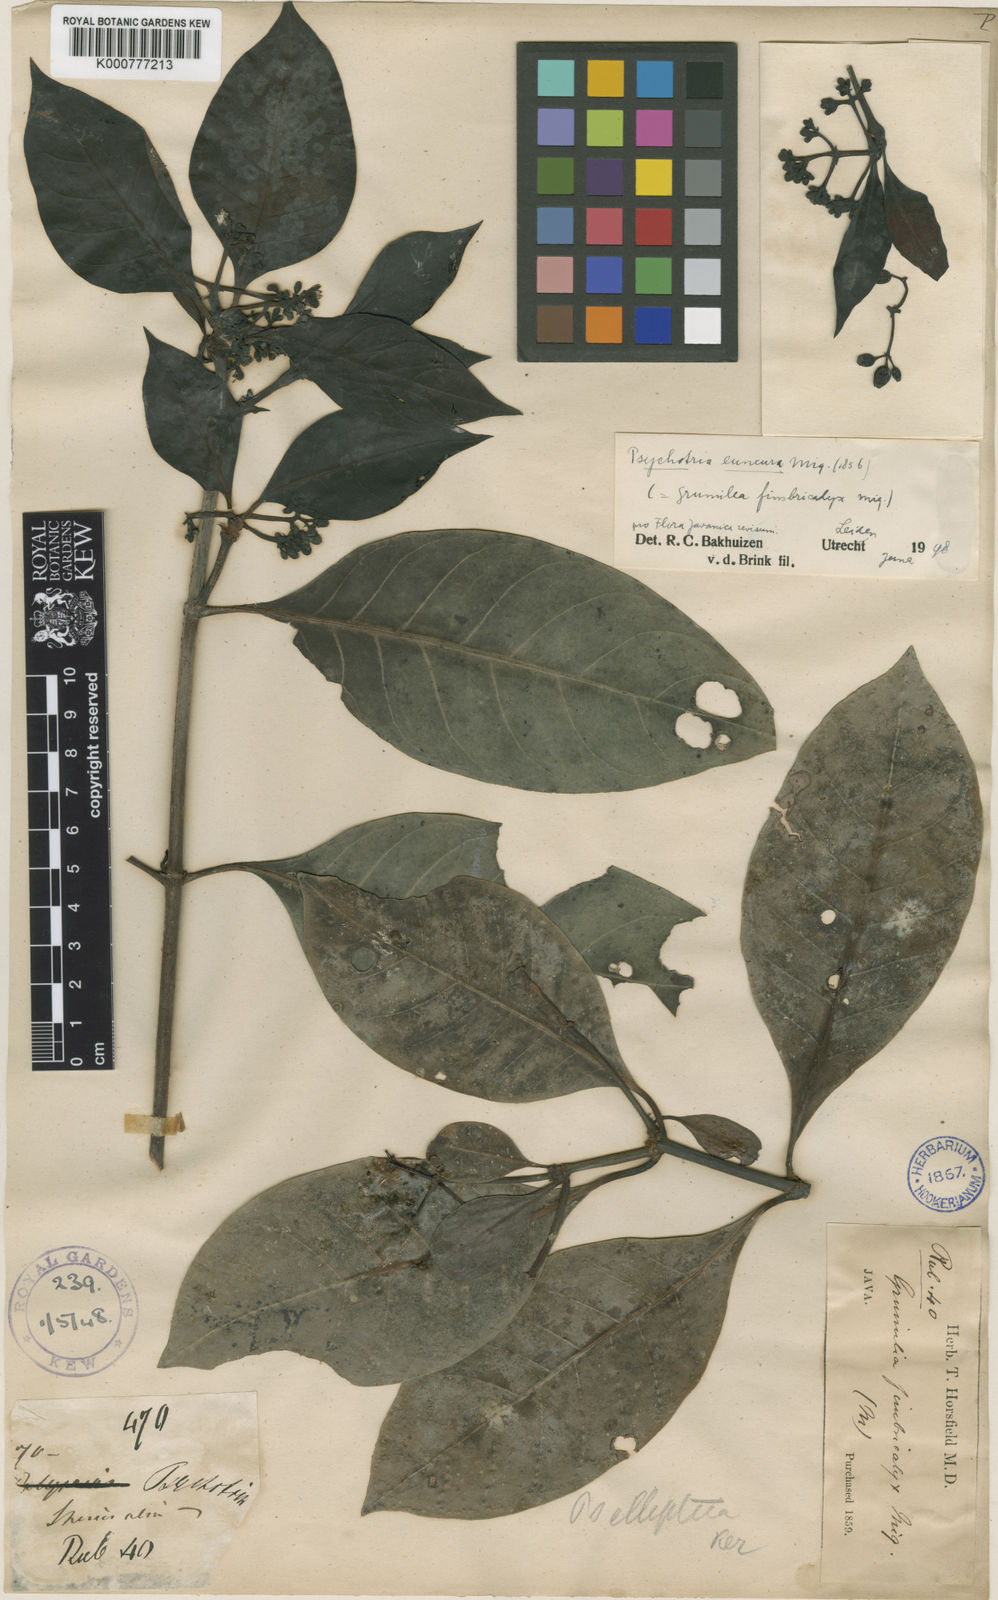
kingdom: Plantae
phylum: Tracheophyta
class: Magnoliopsida
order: Gentianales
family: Rubiaceae
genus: Psychotria
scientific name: Psychotria euneura
